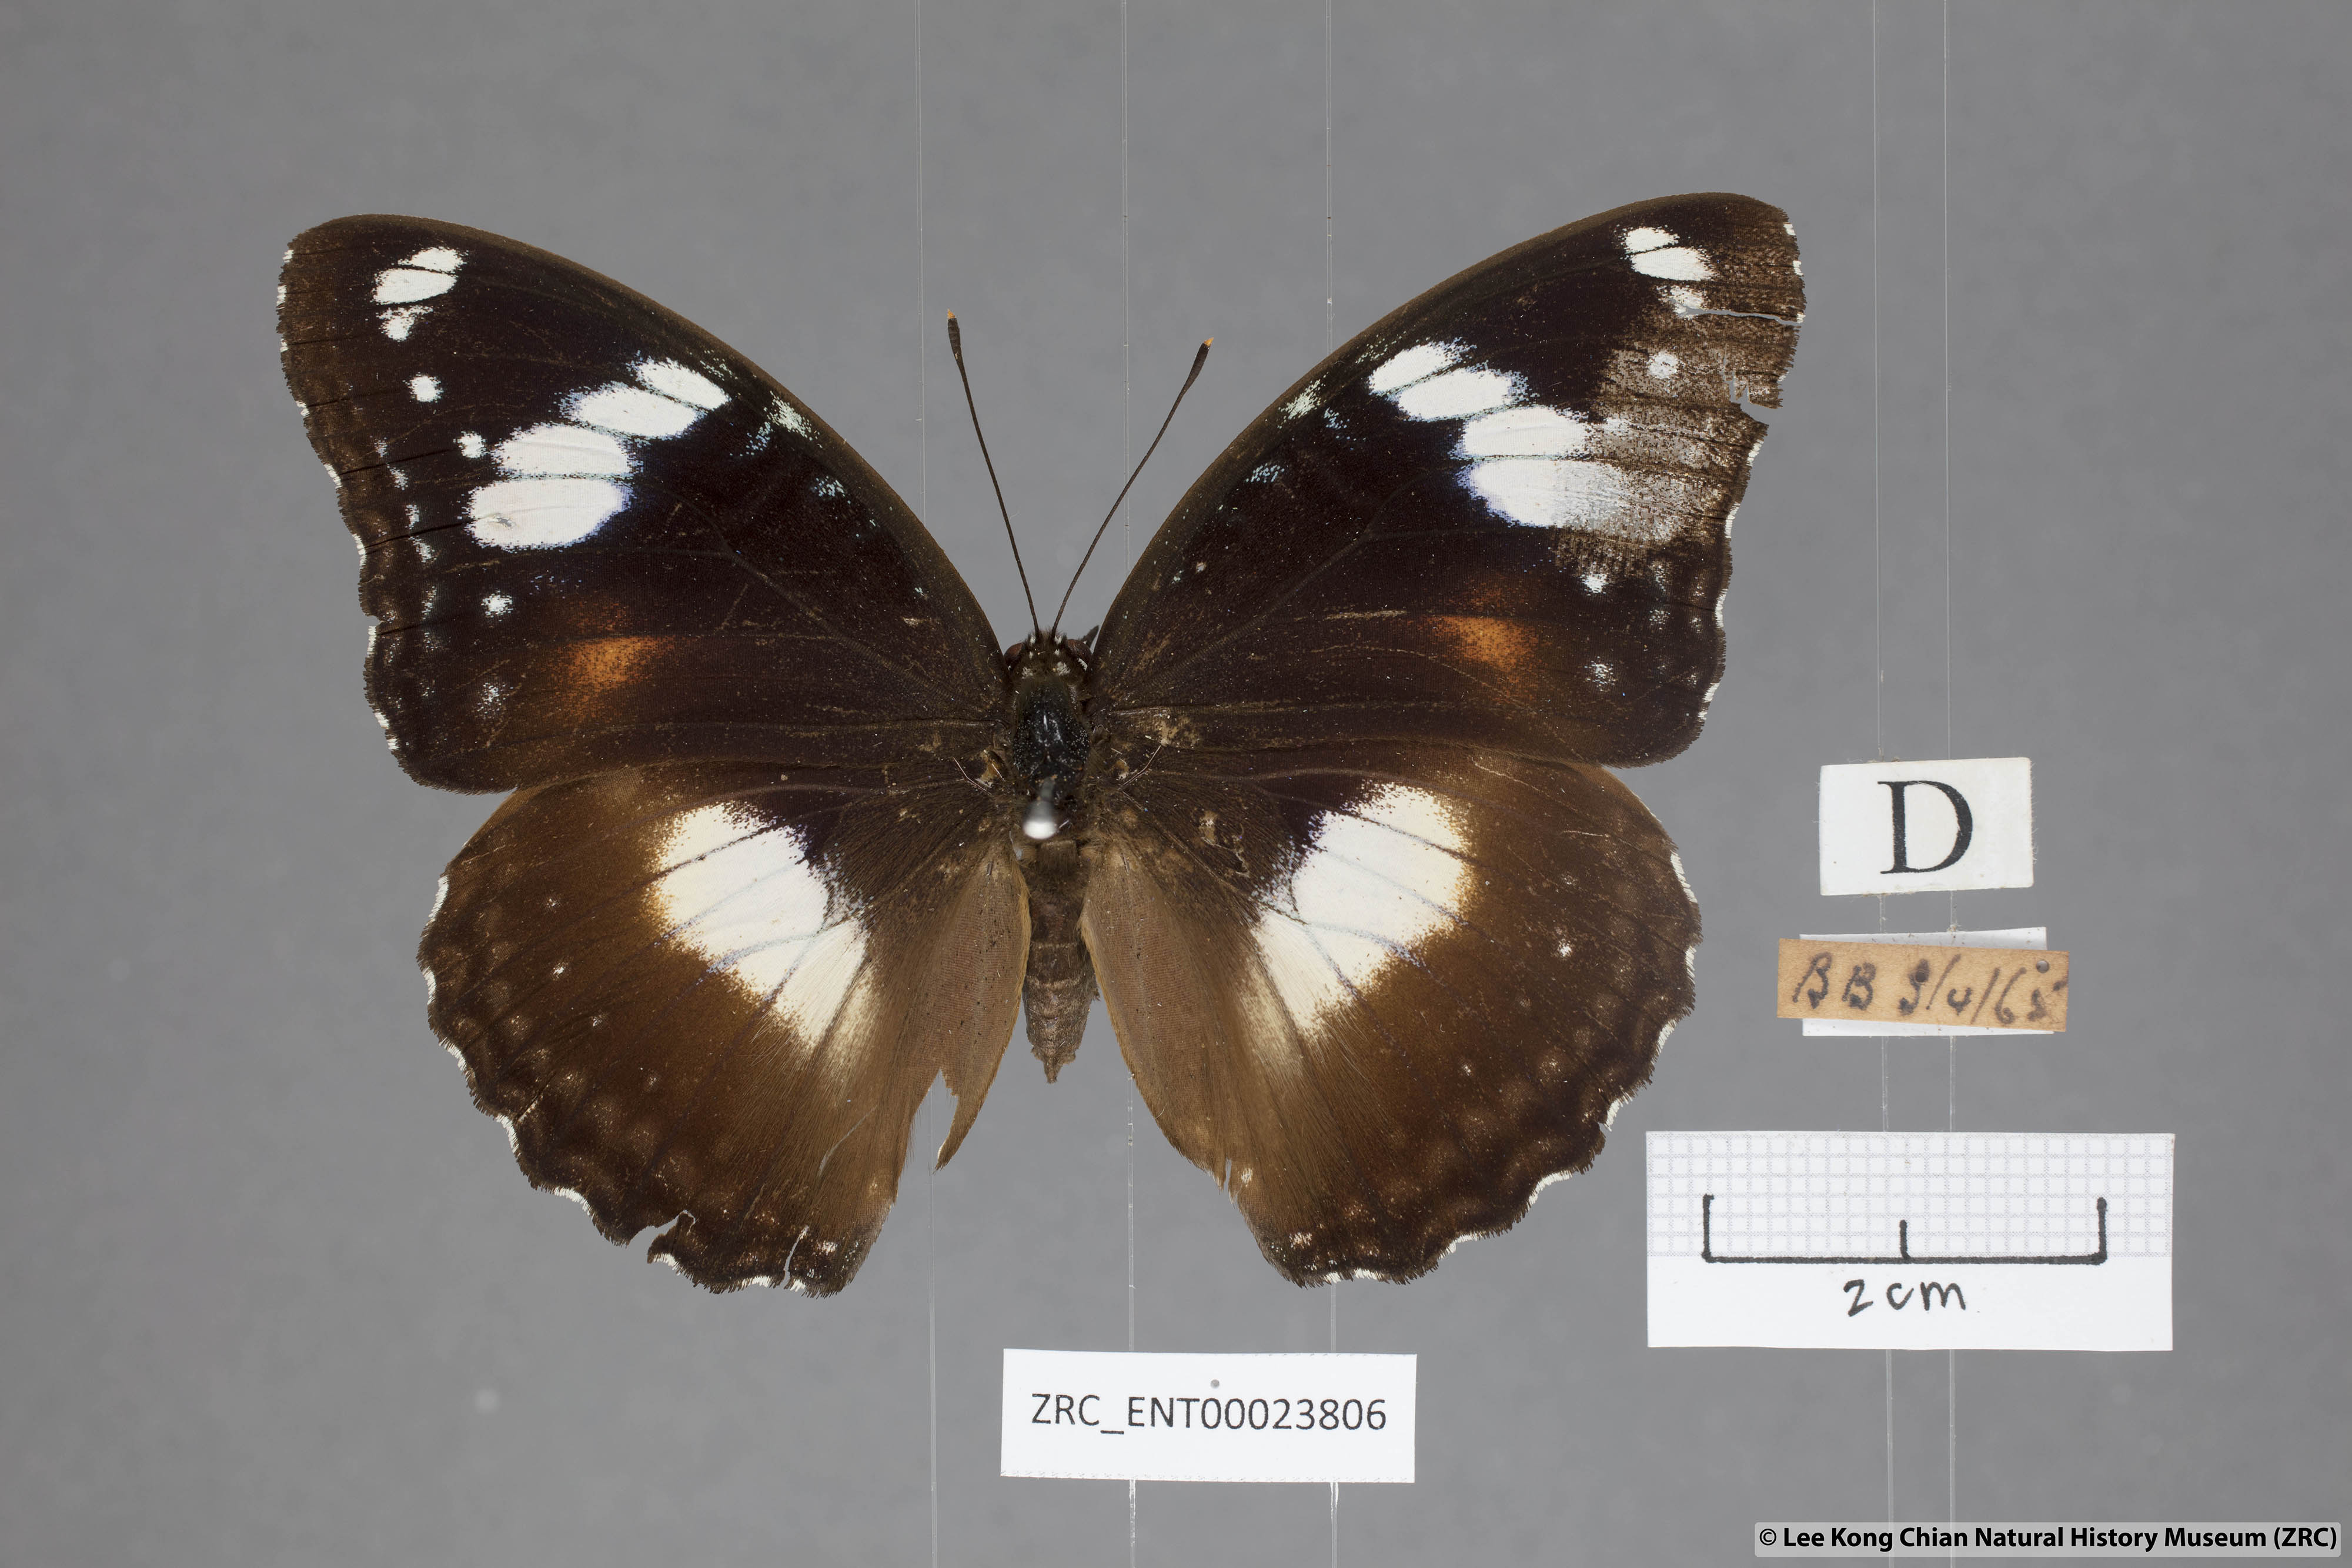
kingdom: Animalia
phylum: Arthropoda
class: Insecta
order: Lepidoptera
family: Nymphalidae
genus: Hypolimnas
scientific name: Hypolimnas bolina
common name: Great eggfly
